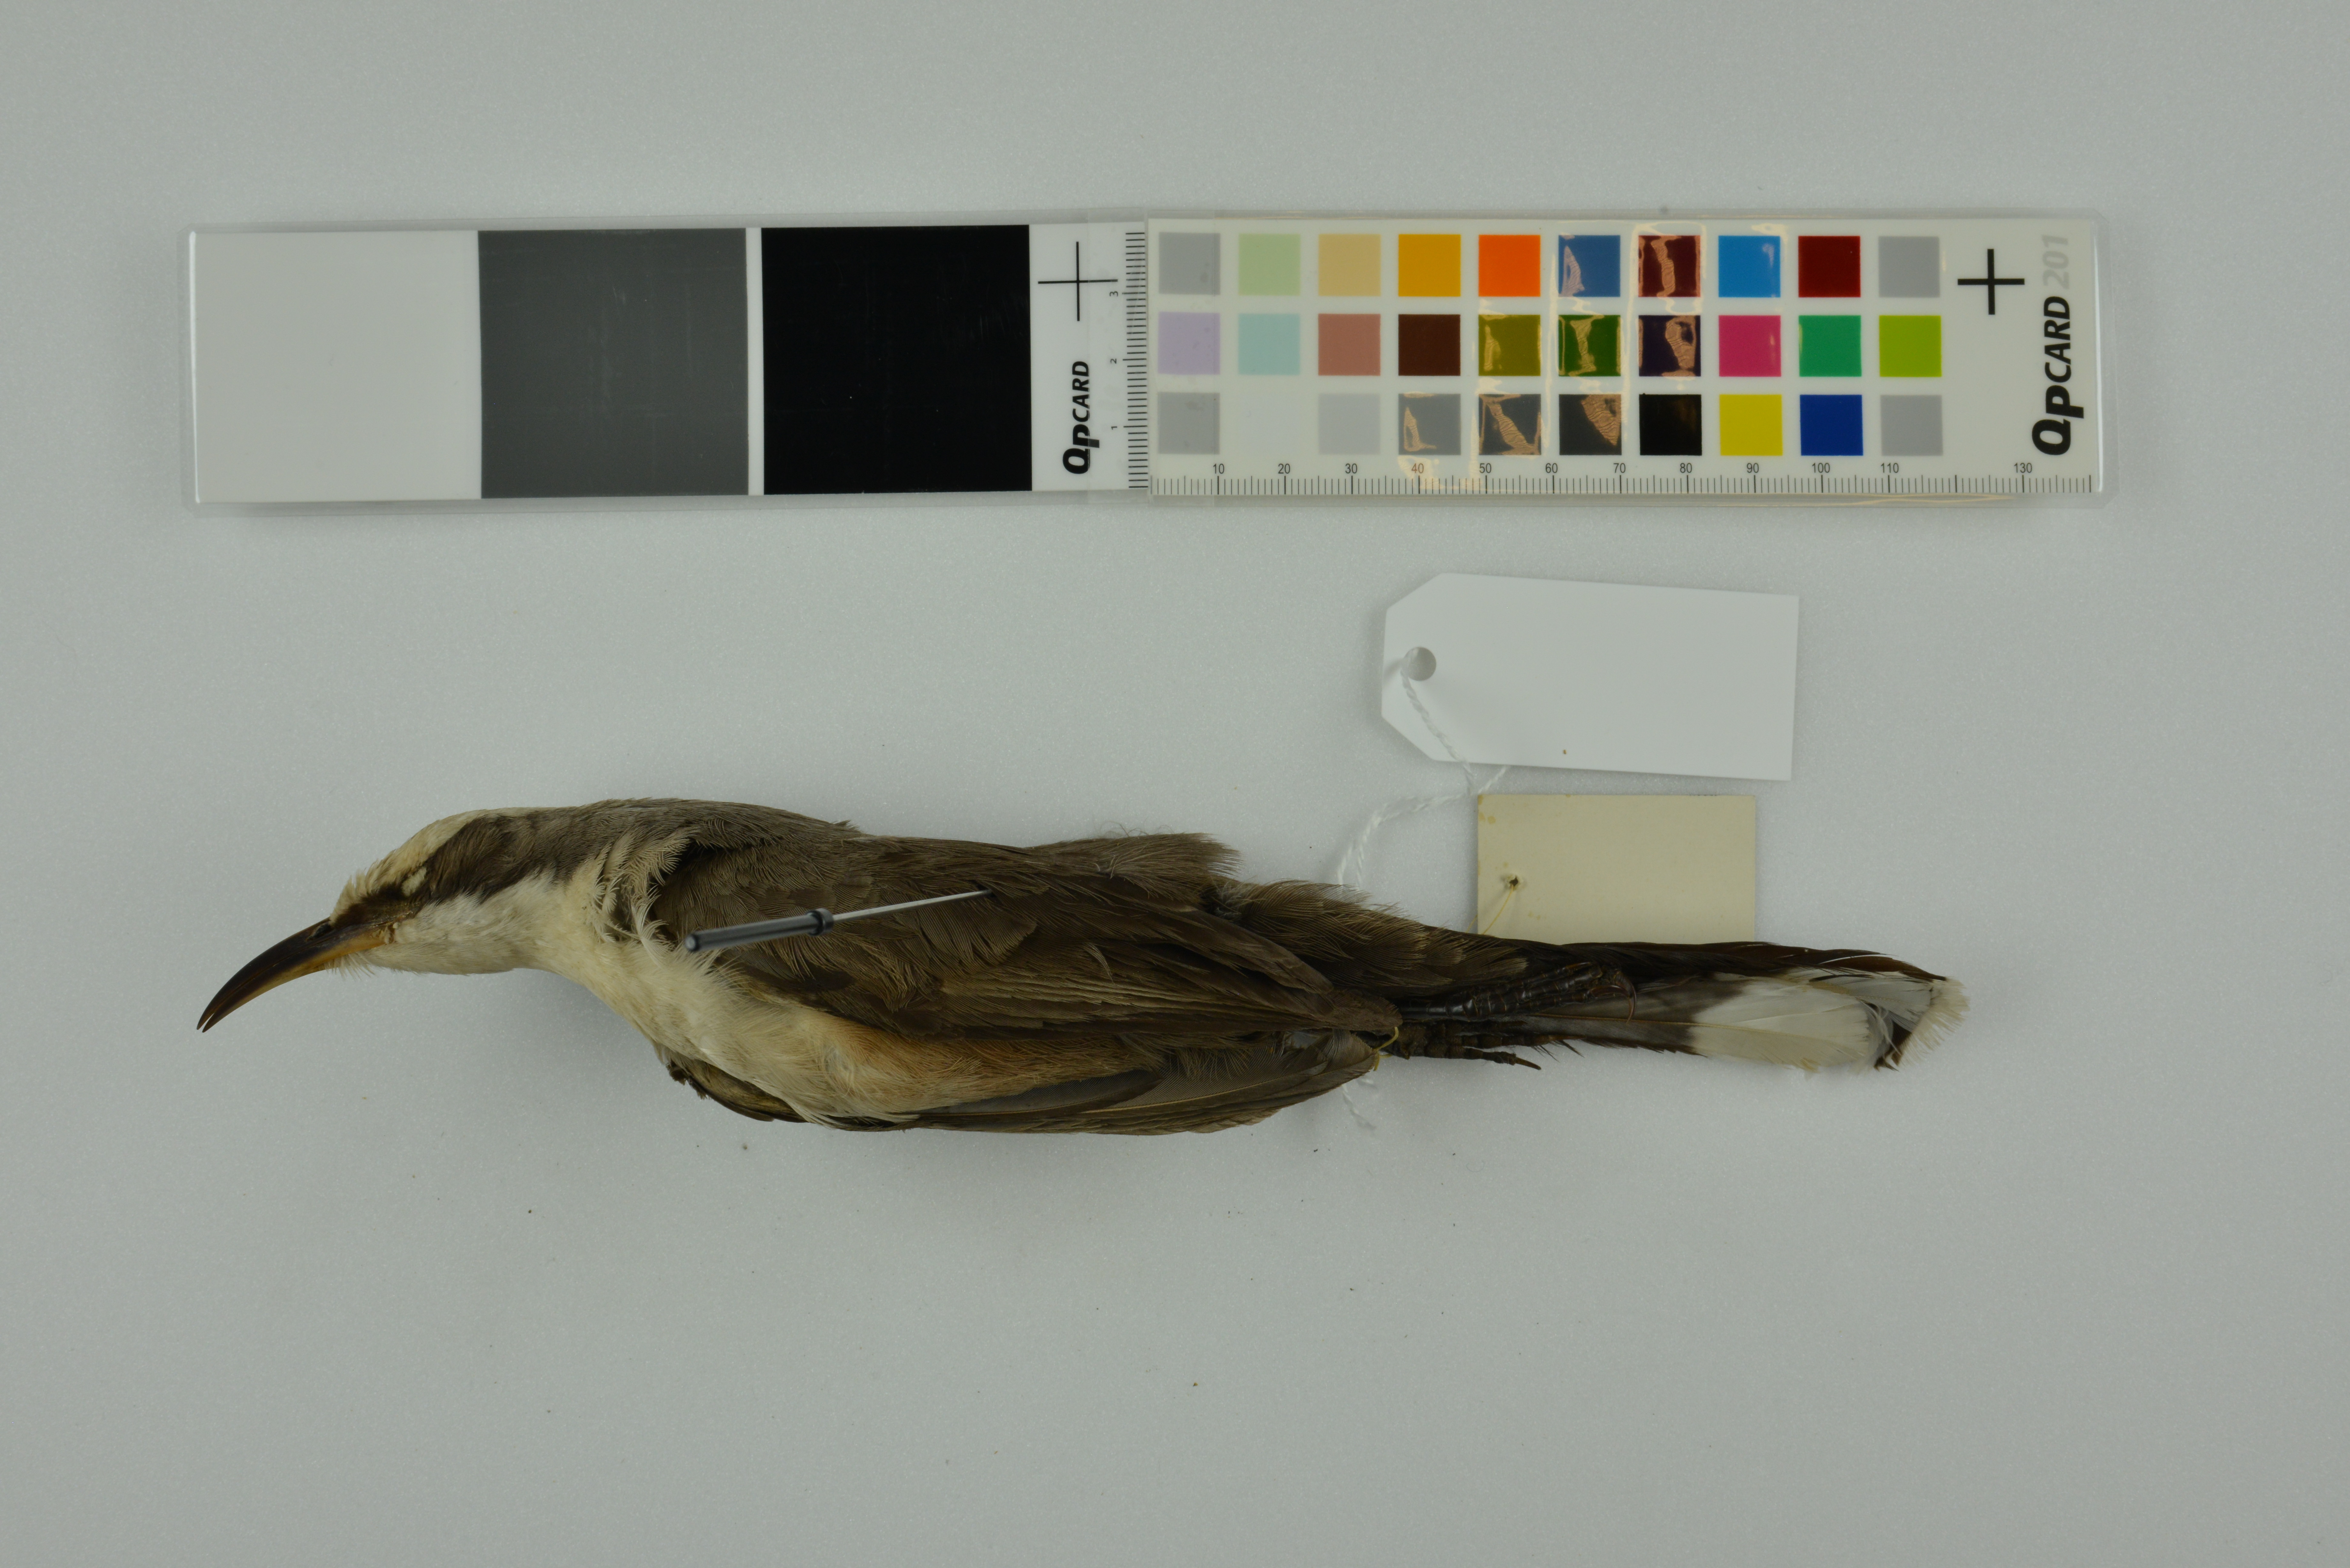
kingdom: Animalia
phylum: Chordata
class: Aves
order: Passeriformes
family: Pomatostomidae
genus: Pomatostomus
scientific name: Pomatostomus temporalis
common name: Grey-crowned babbler
